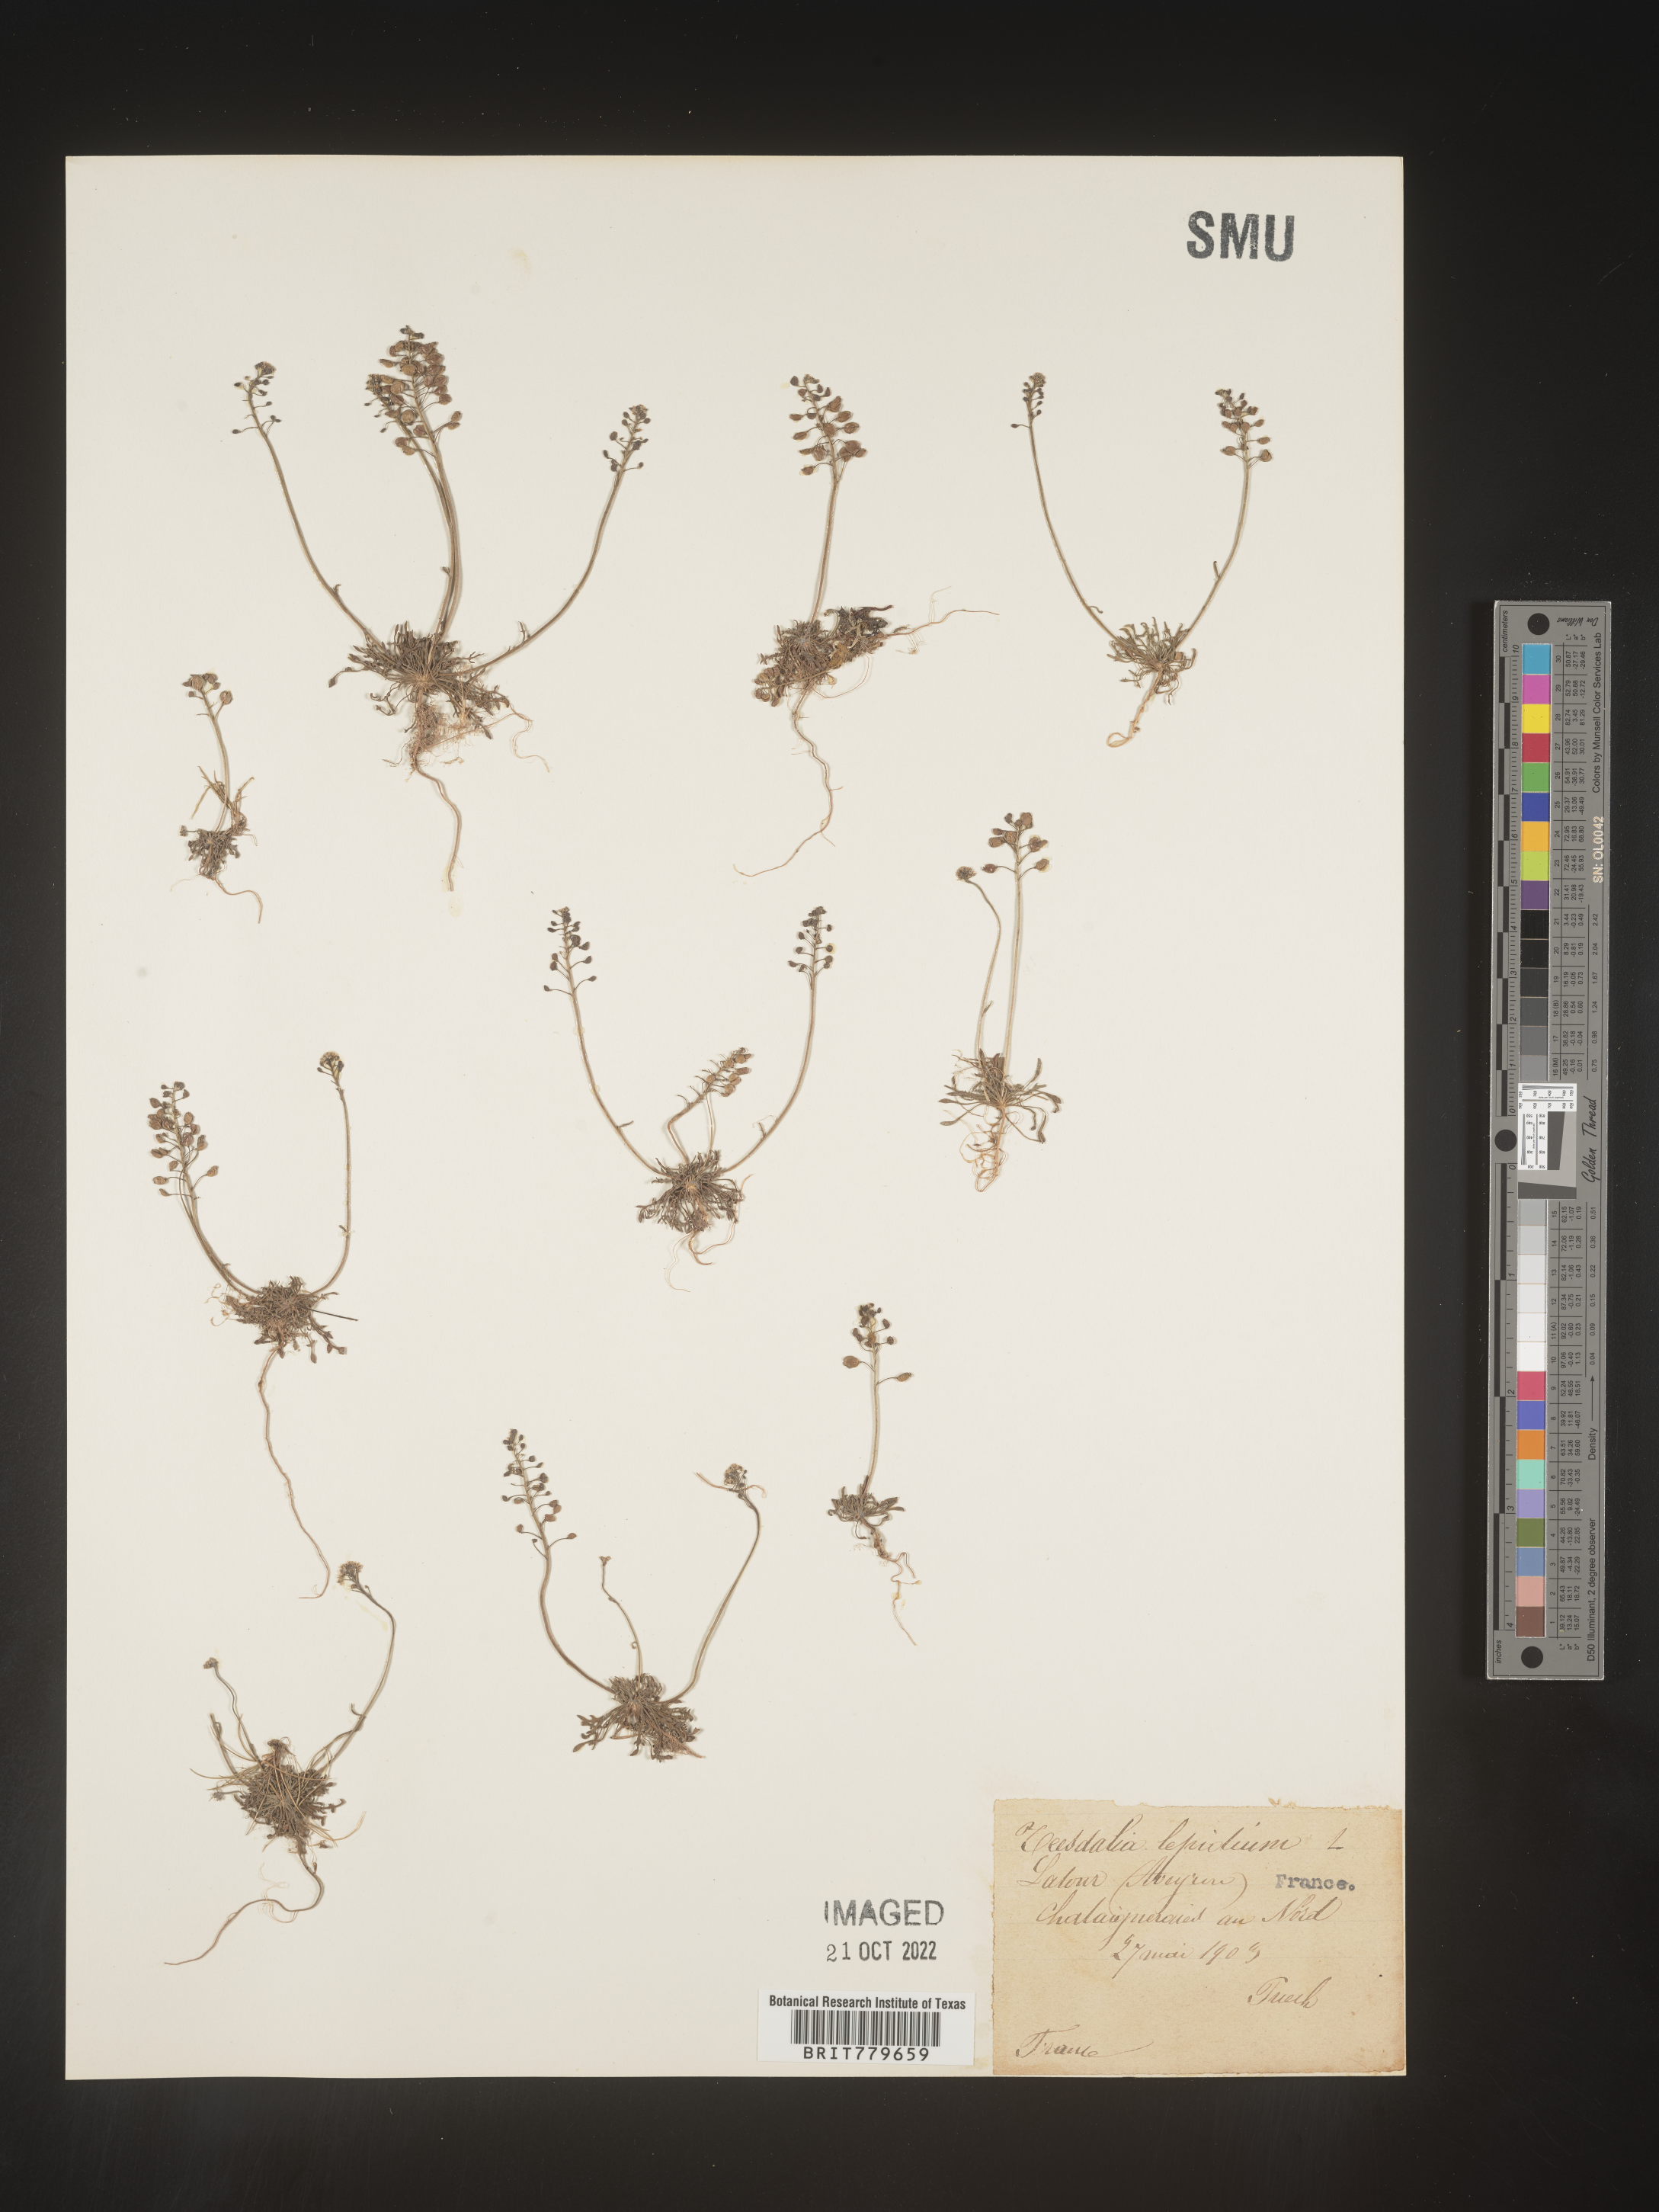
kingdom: Plantae
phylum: Tracheophyta
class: Magnoliopsida
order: Brassicales
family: Brassicaceae
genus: Teesdalia
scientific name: Teesdalia
